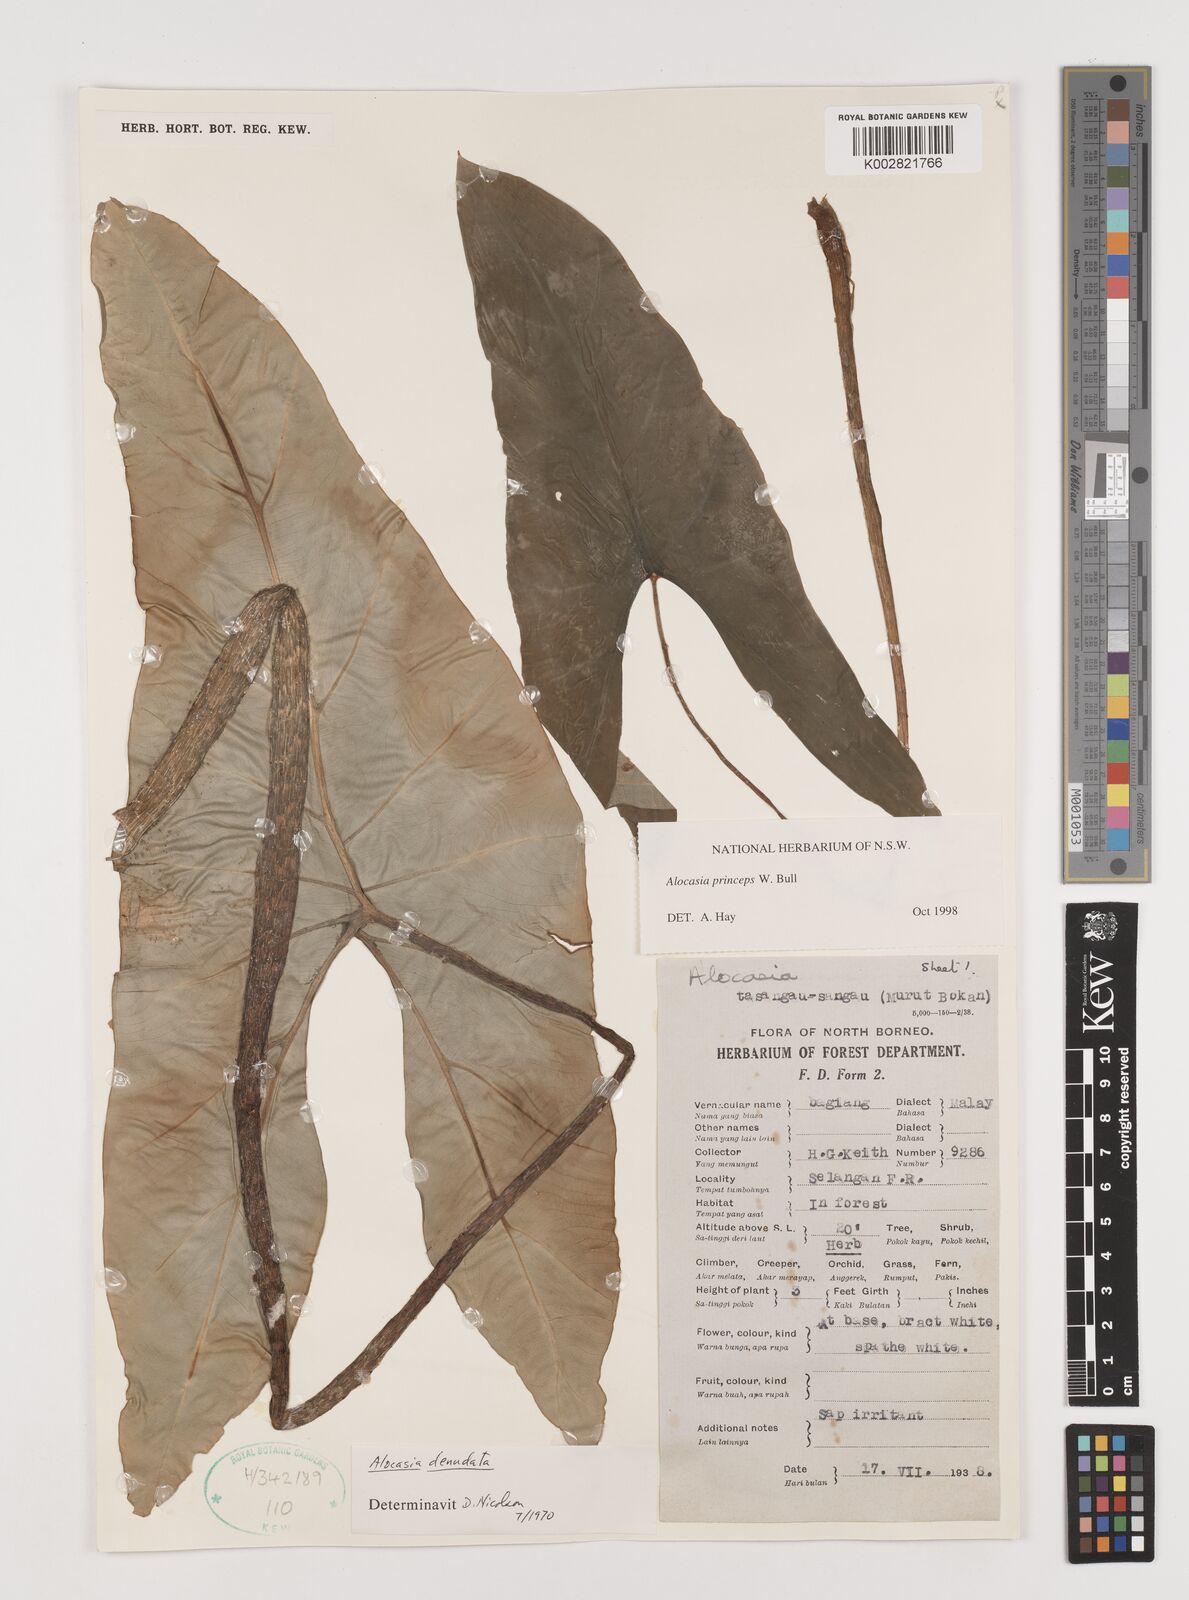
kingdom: Plantae
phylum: Tracheophyta
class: Liliopsida
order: Alismatales
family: Araceae
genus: Alocasia
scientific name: Alocasia princeps
